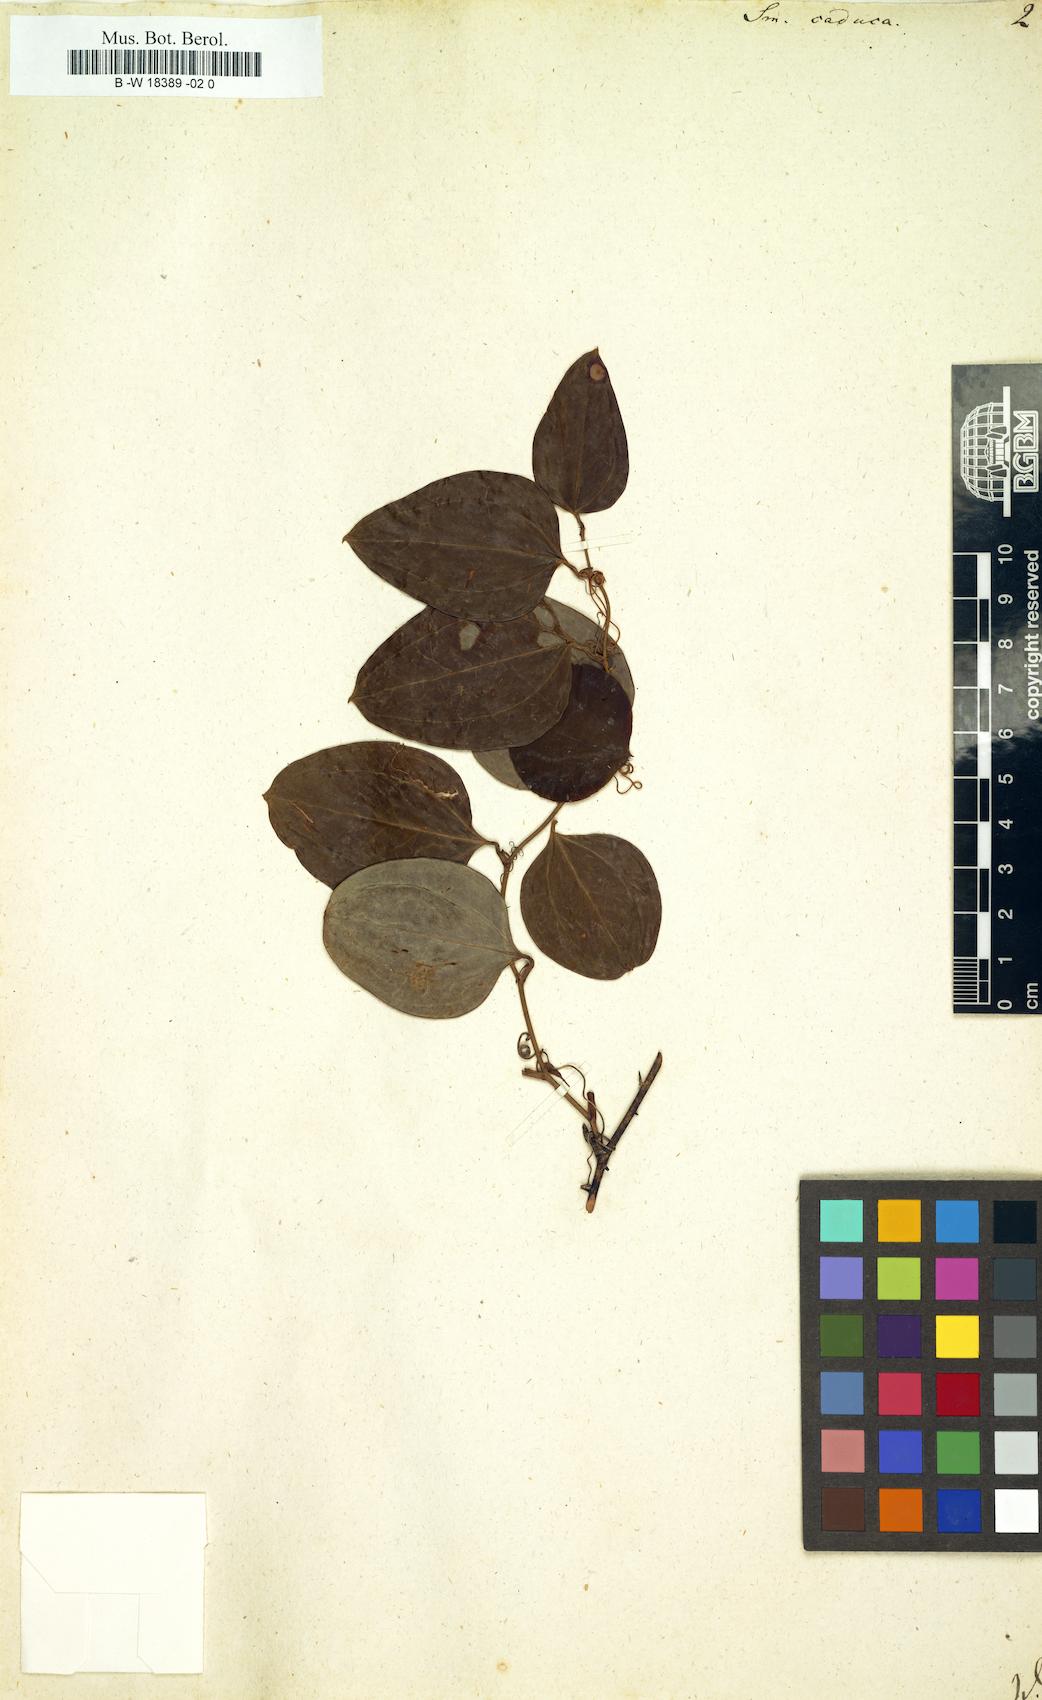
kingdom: Plantae
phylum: Tracheophyta
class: Liliopsida
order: Liliales
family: Smilacaceae
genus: Smilax
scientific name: Smilax caduca
